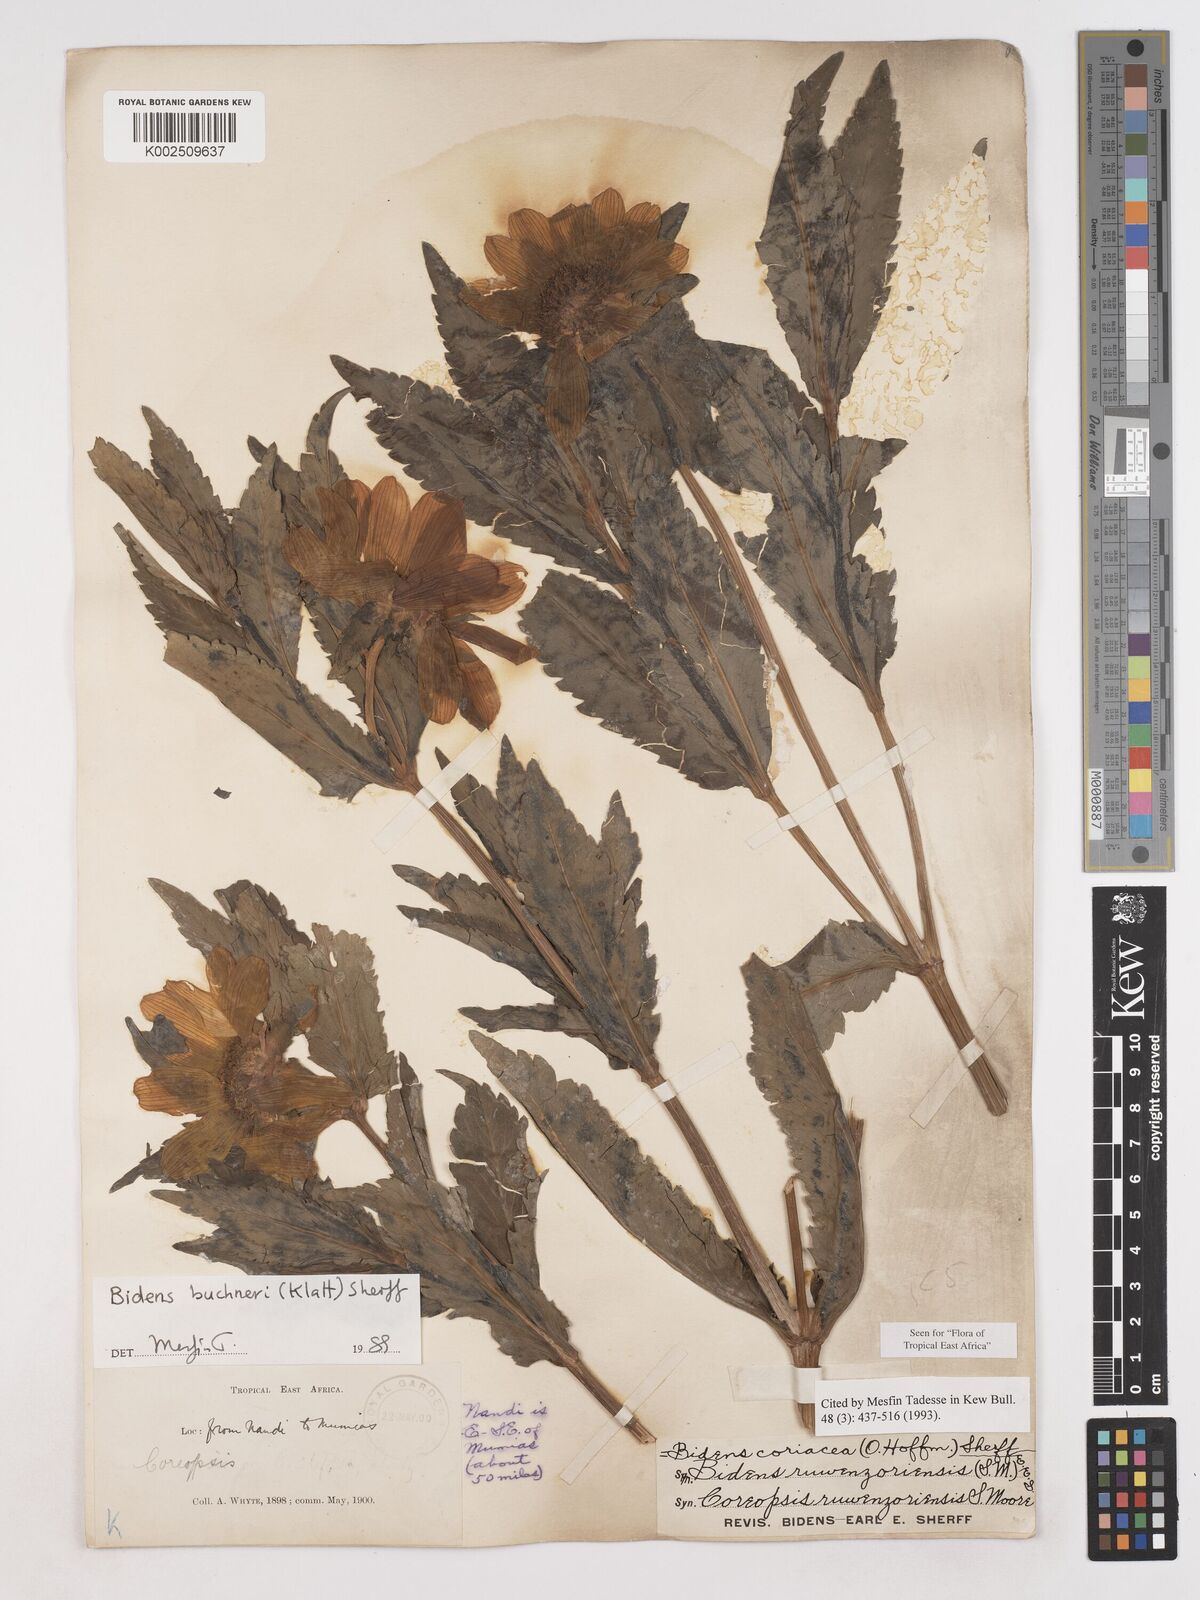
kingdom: Plantae
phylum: Tracheophyta
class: Magnoliopsida
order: Asterales
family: Asteraceae
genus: Bidens
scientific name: Bidens buchneri
